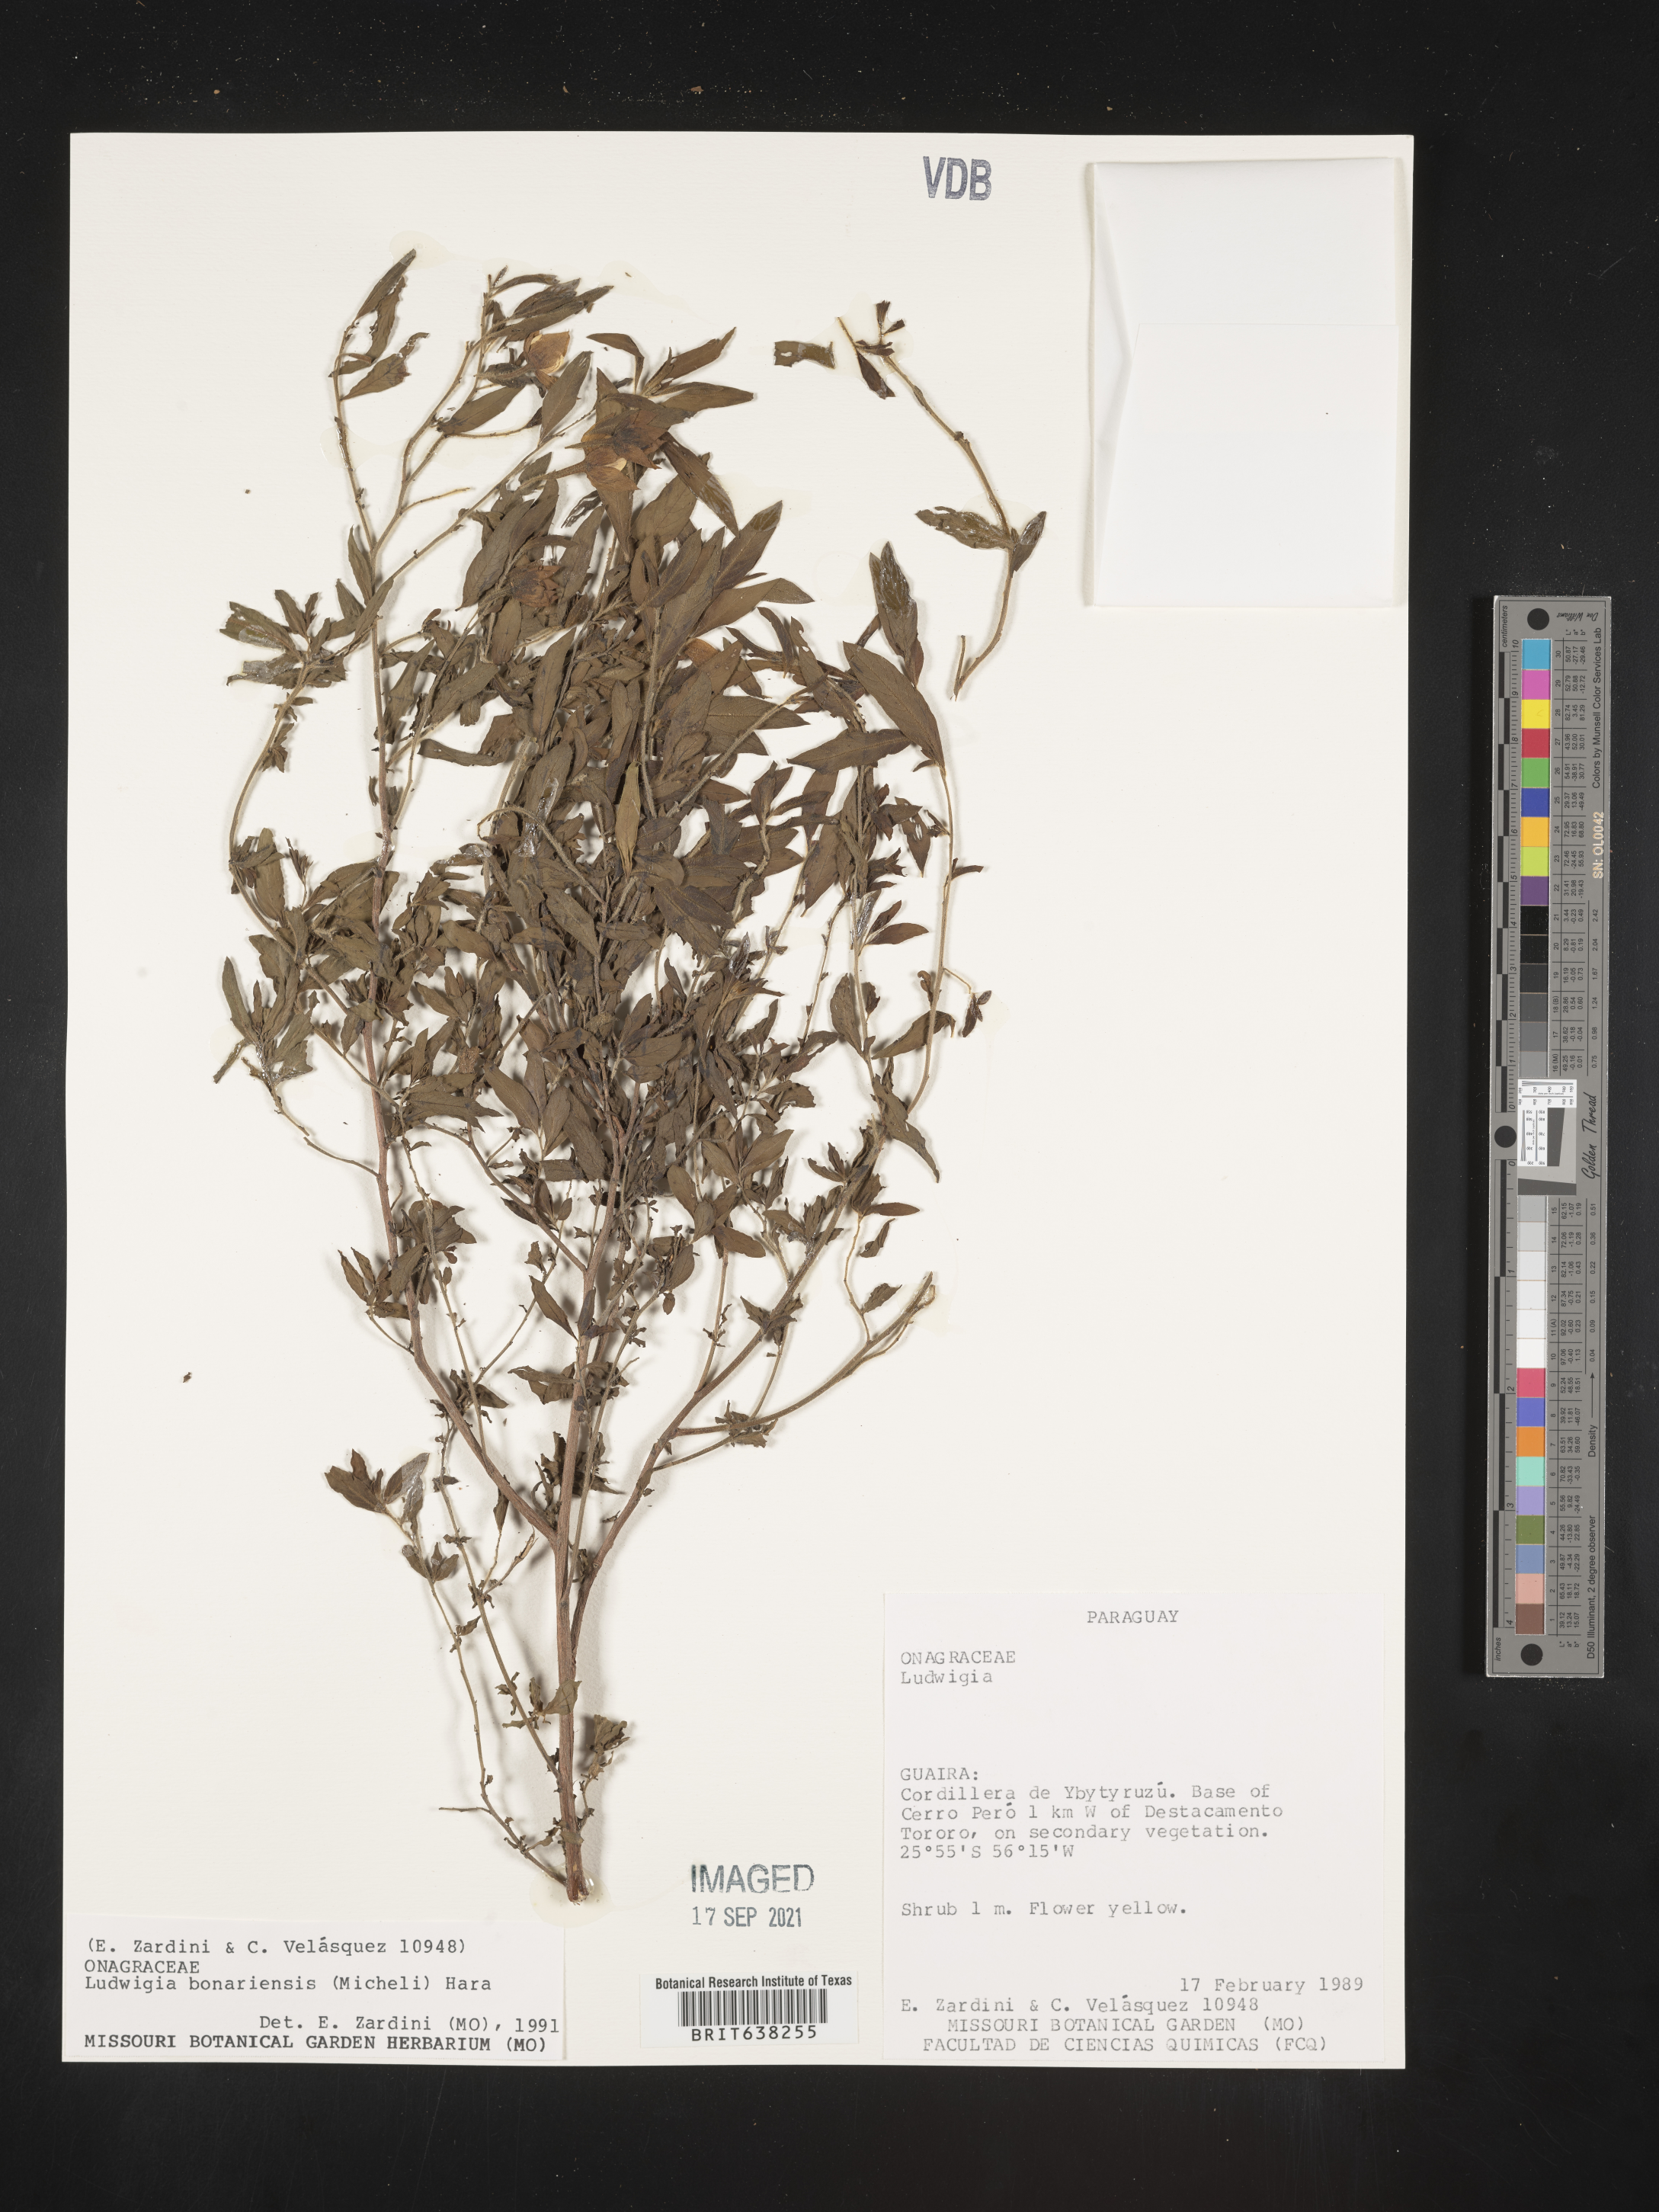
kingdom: Plantae
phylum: Tracheophyta
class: Magnoliopsida
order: Myrtales
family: Onagraceae
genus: Ludwigia
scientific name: Ludwigia
